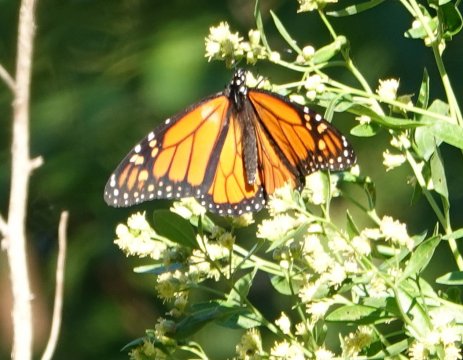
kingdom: Animalia
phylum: Arthropoda
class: Insecta
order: Lepidoptera
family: Nymphalidae
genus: Danaus
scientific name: Danaus plexippus
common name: Monarch
